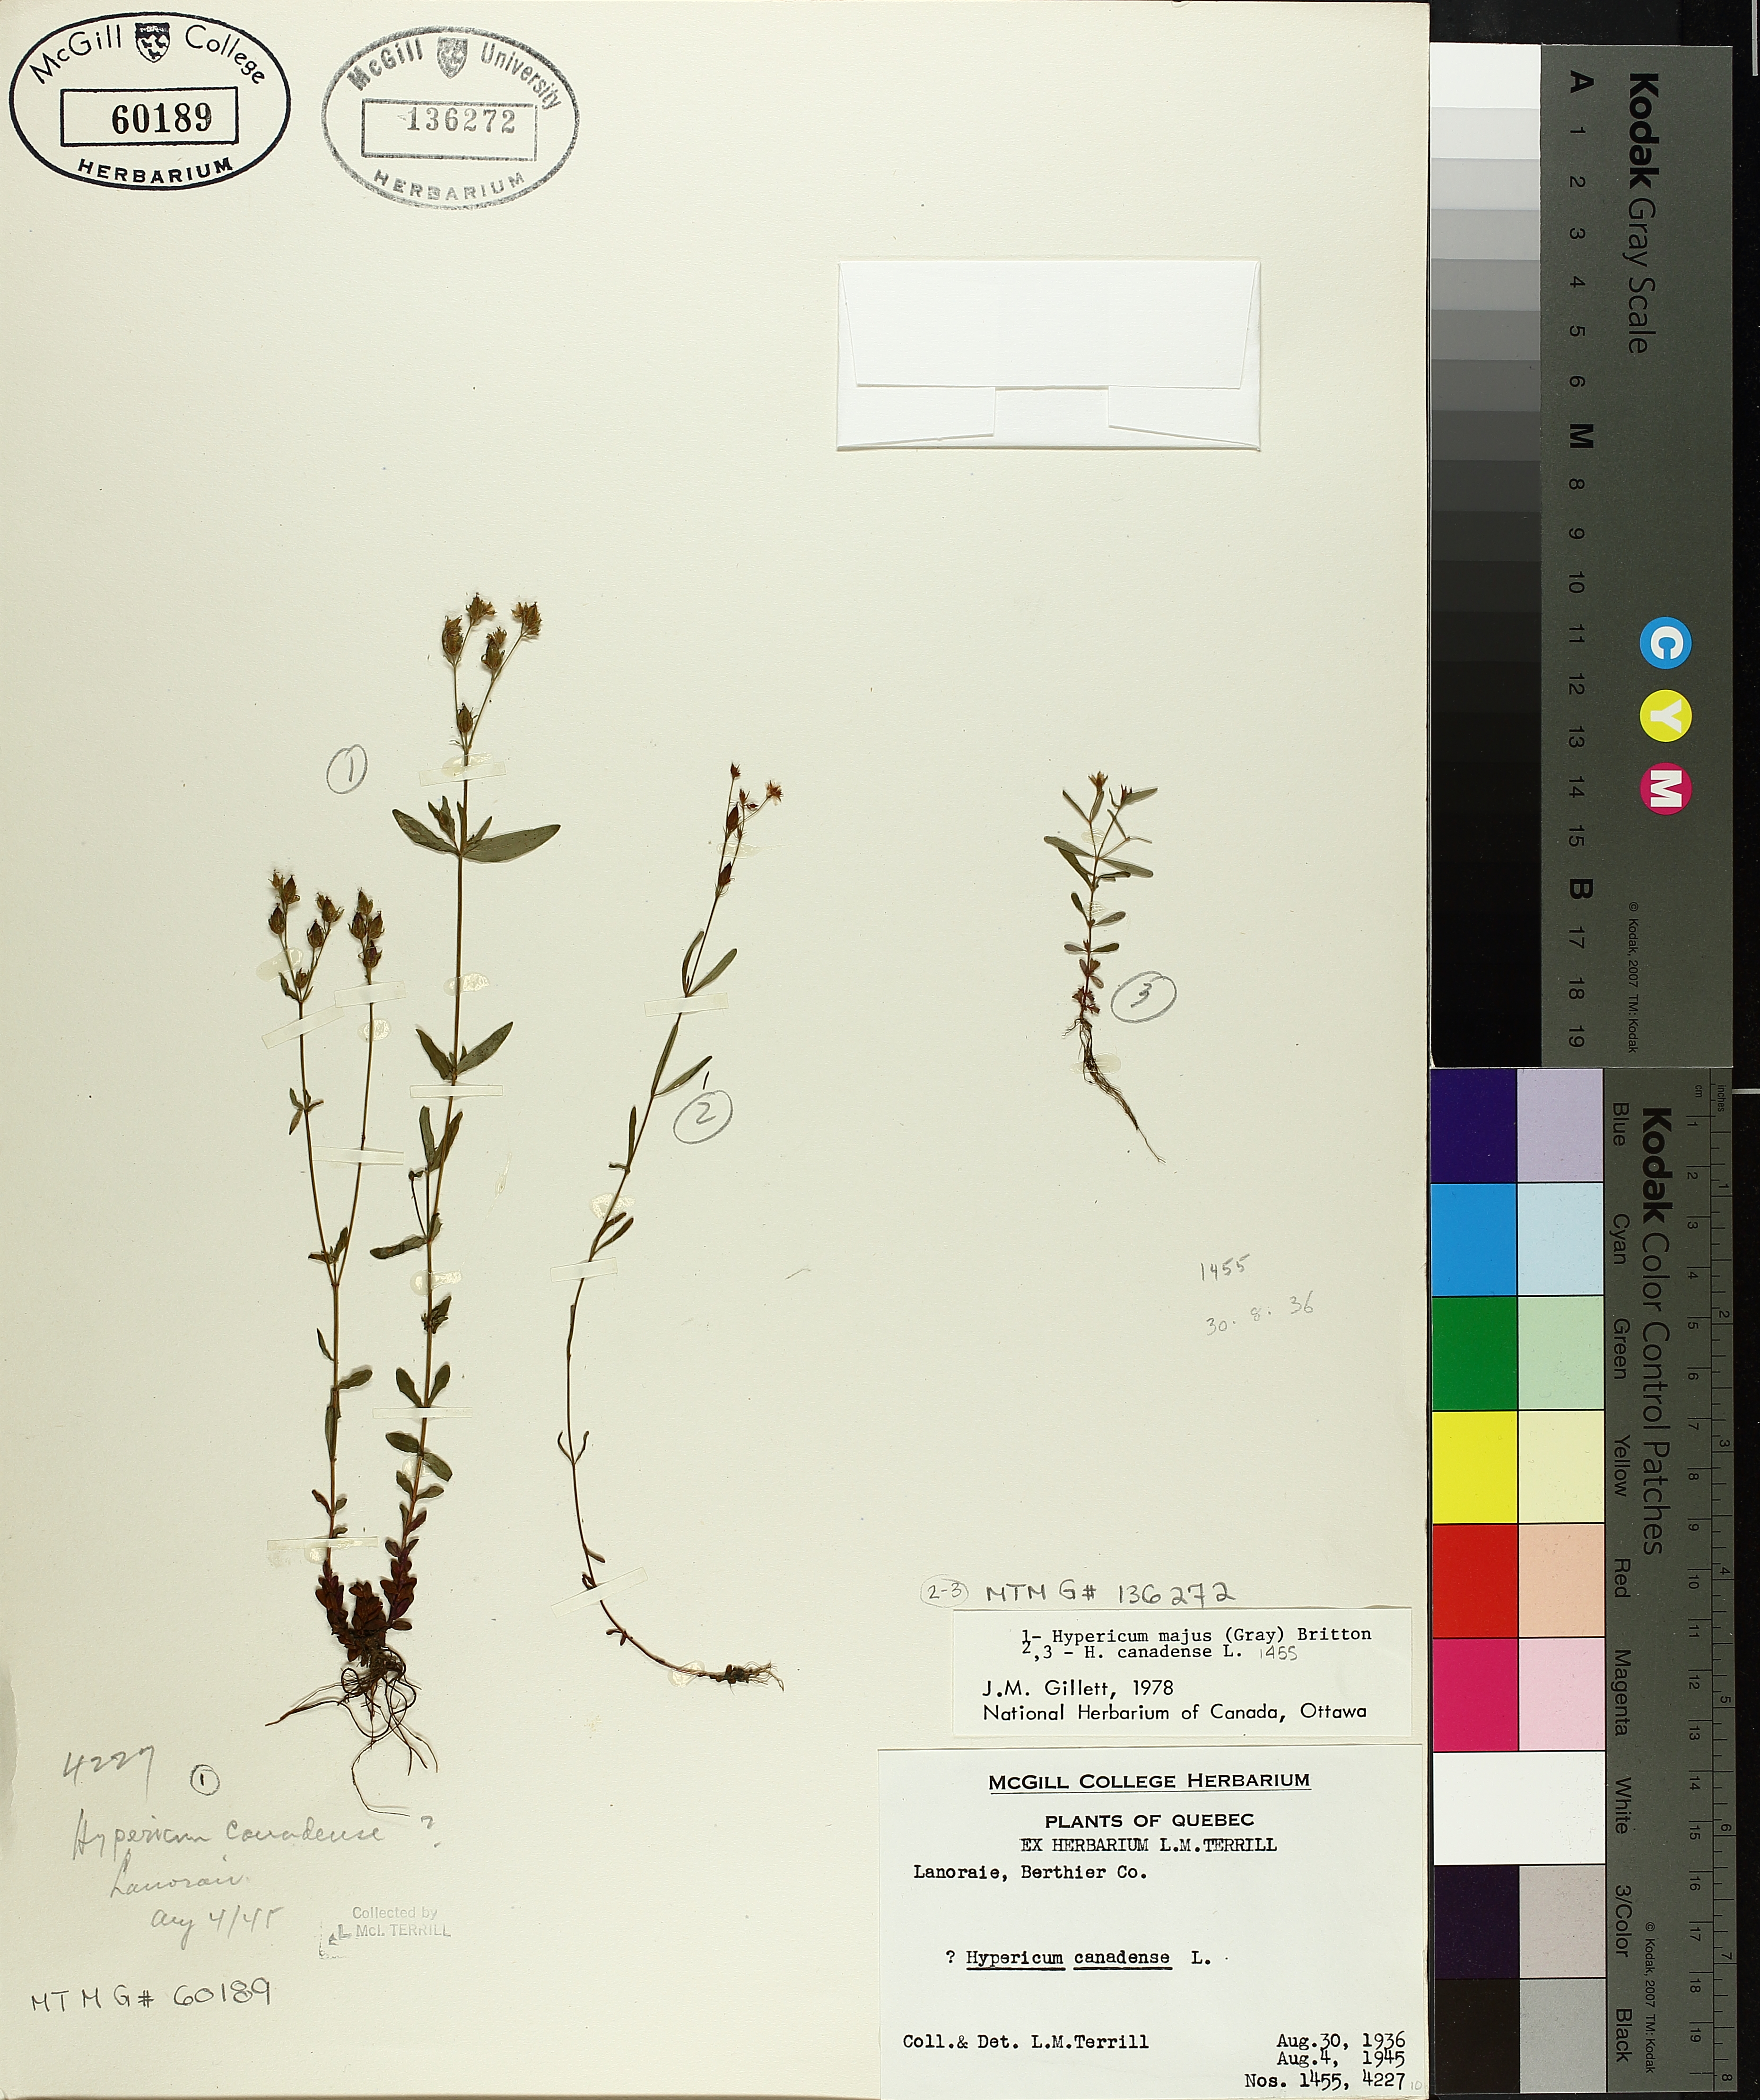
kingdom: Plantae
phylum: Tracheophyta
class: Magnoliopsida
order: Malpighiales
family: Hypericaceae
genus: Hypericum
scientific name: Hypericum canadense
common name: Irish st. john's-wort
